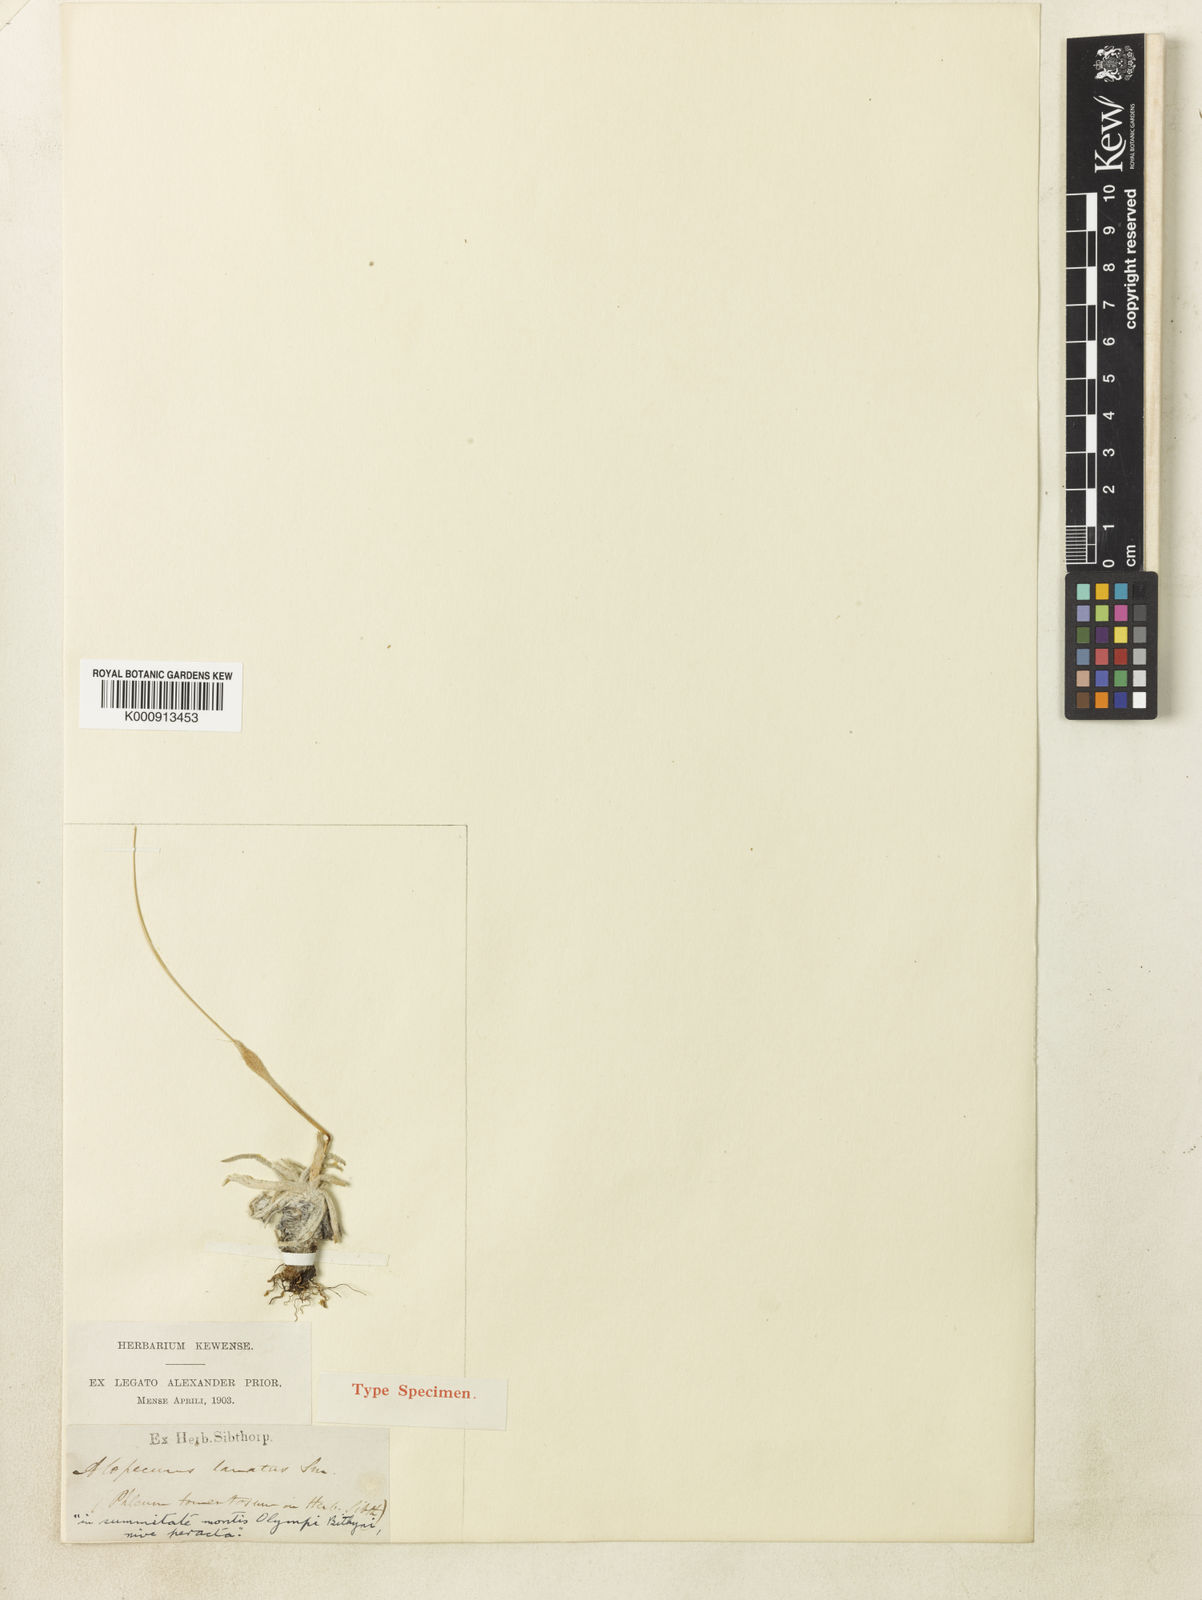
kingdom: Plantae
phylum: Tracheophyta
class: Liliopsida
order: Poales
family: Poaceae
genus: Alopecurus
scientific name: Alopecurus lanatus
